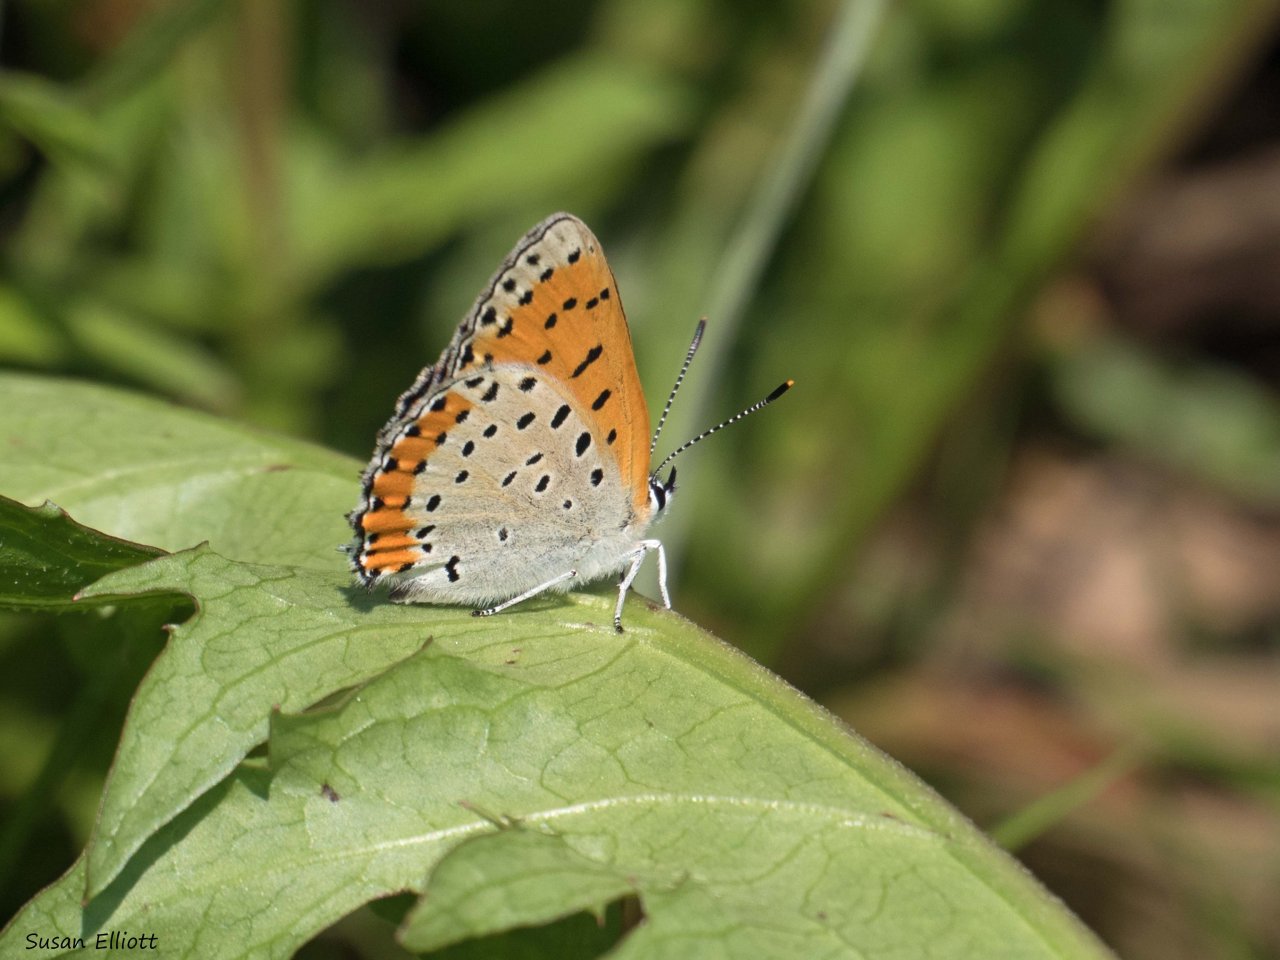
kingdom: Animalia
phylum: Arthropoda
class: Insecta
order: Lepidoptera
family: Sesiidae
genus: Sesia
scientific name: Sesia Lycaena hyllus
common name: Bronze Copper
